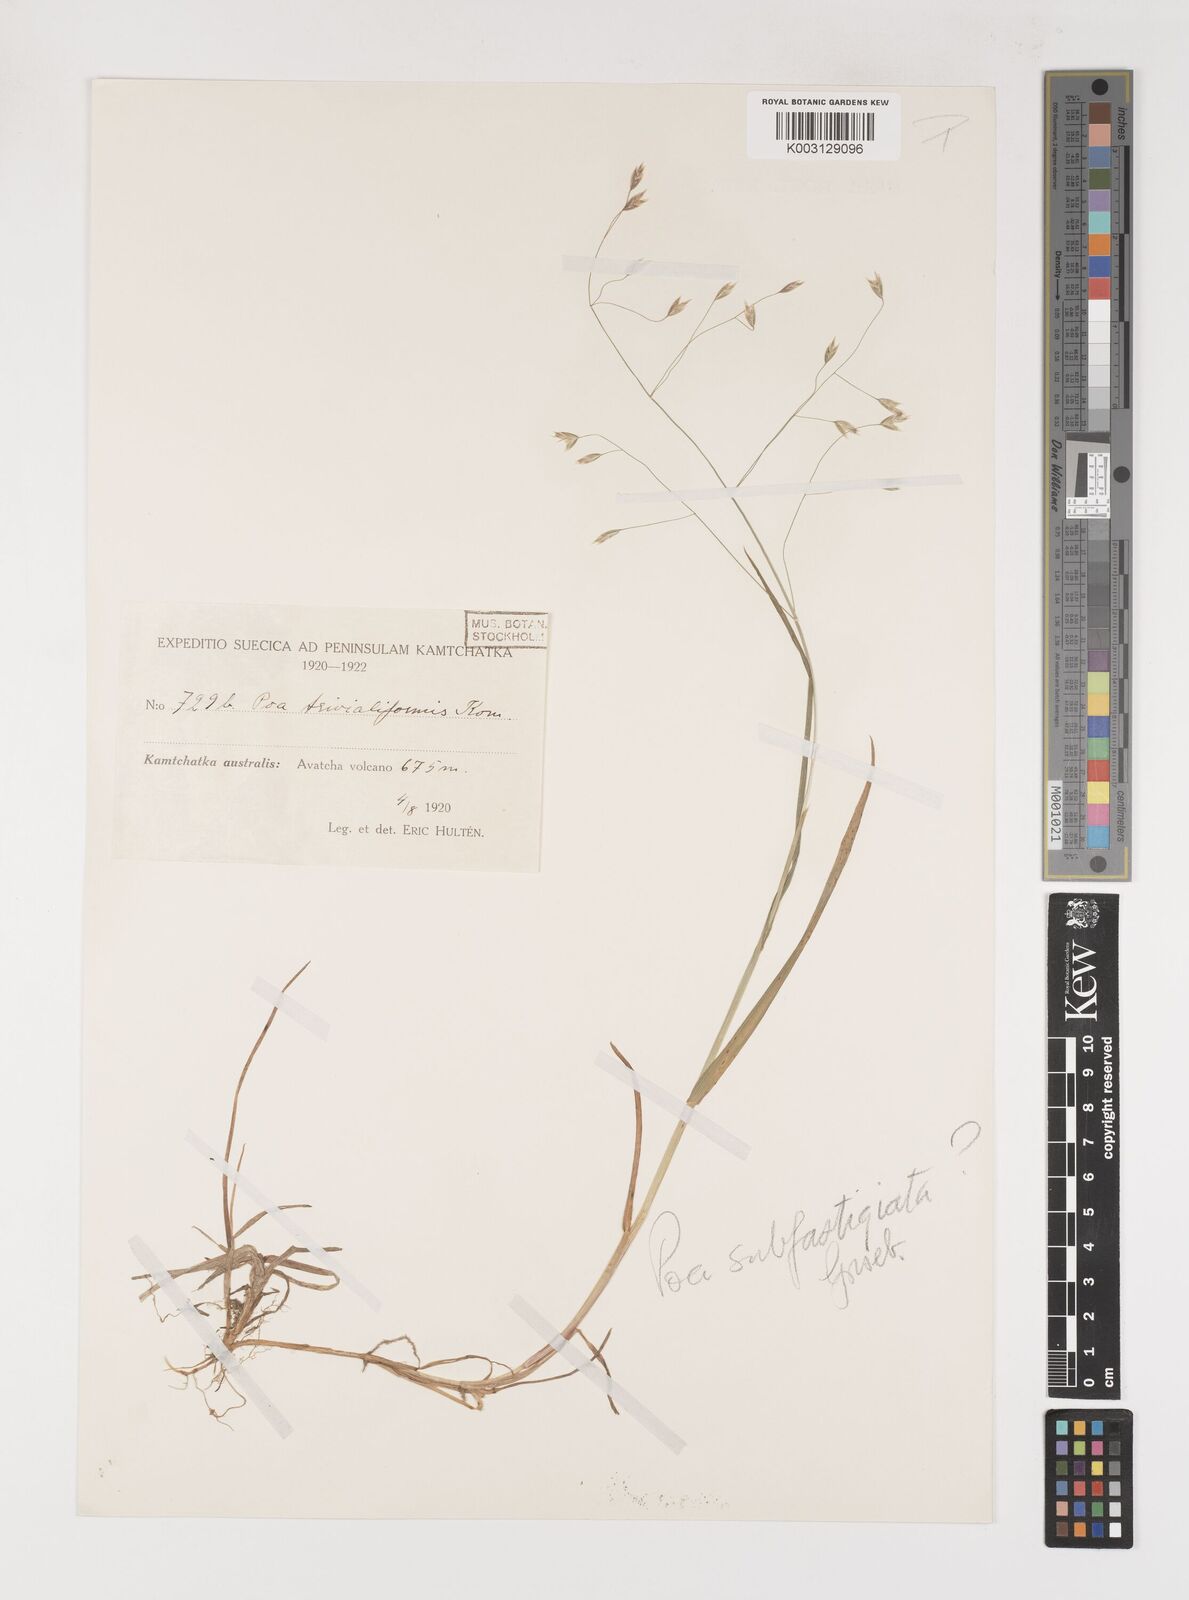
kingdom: Plantae
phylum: Tracheophyta
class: Liliopsida
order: Poales
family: Poaceae
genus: Poa
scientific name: Poa trivialiformis
